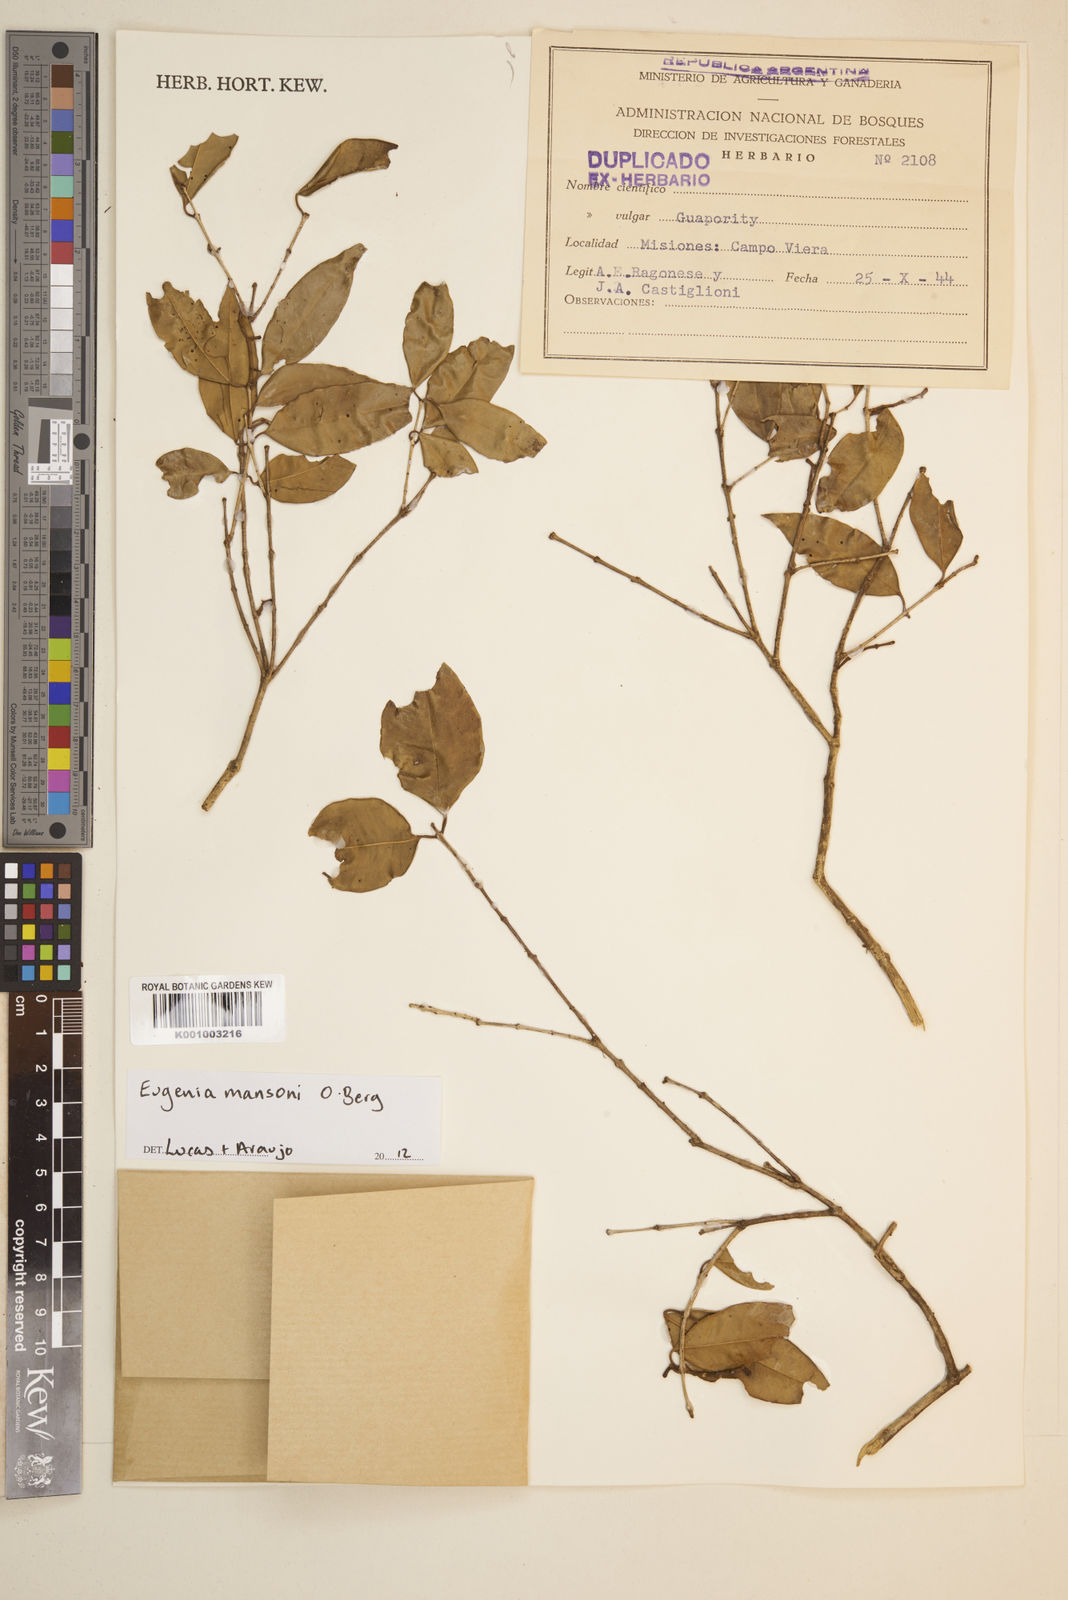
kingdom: Plantae
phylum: Tracheophyta
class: Magnoliopsida
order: Myrtales
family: Myrtaceae
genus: Eugenia
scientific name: Eugenia
